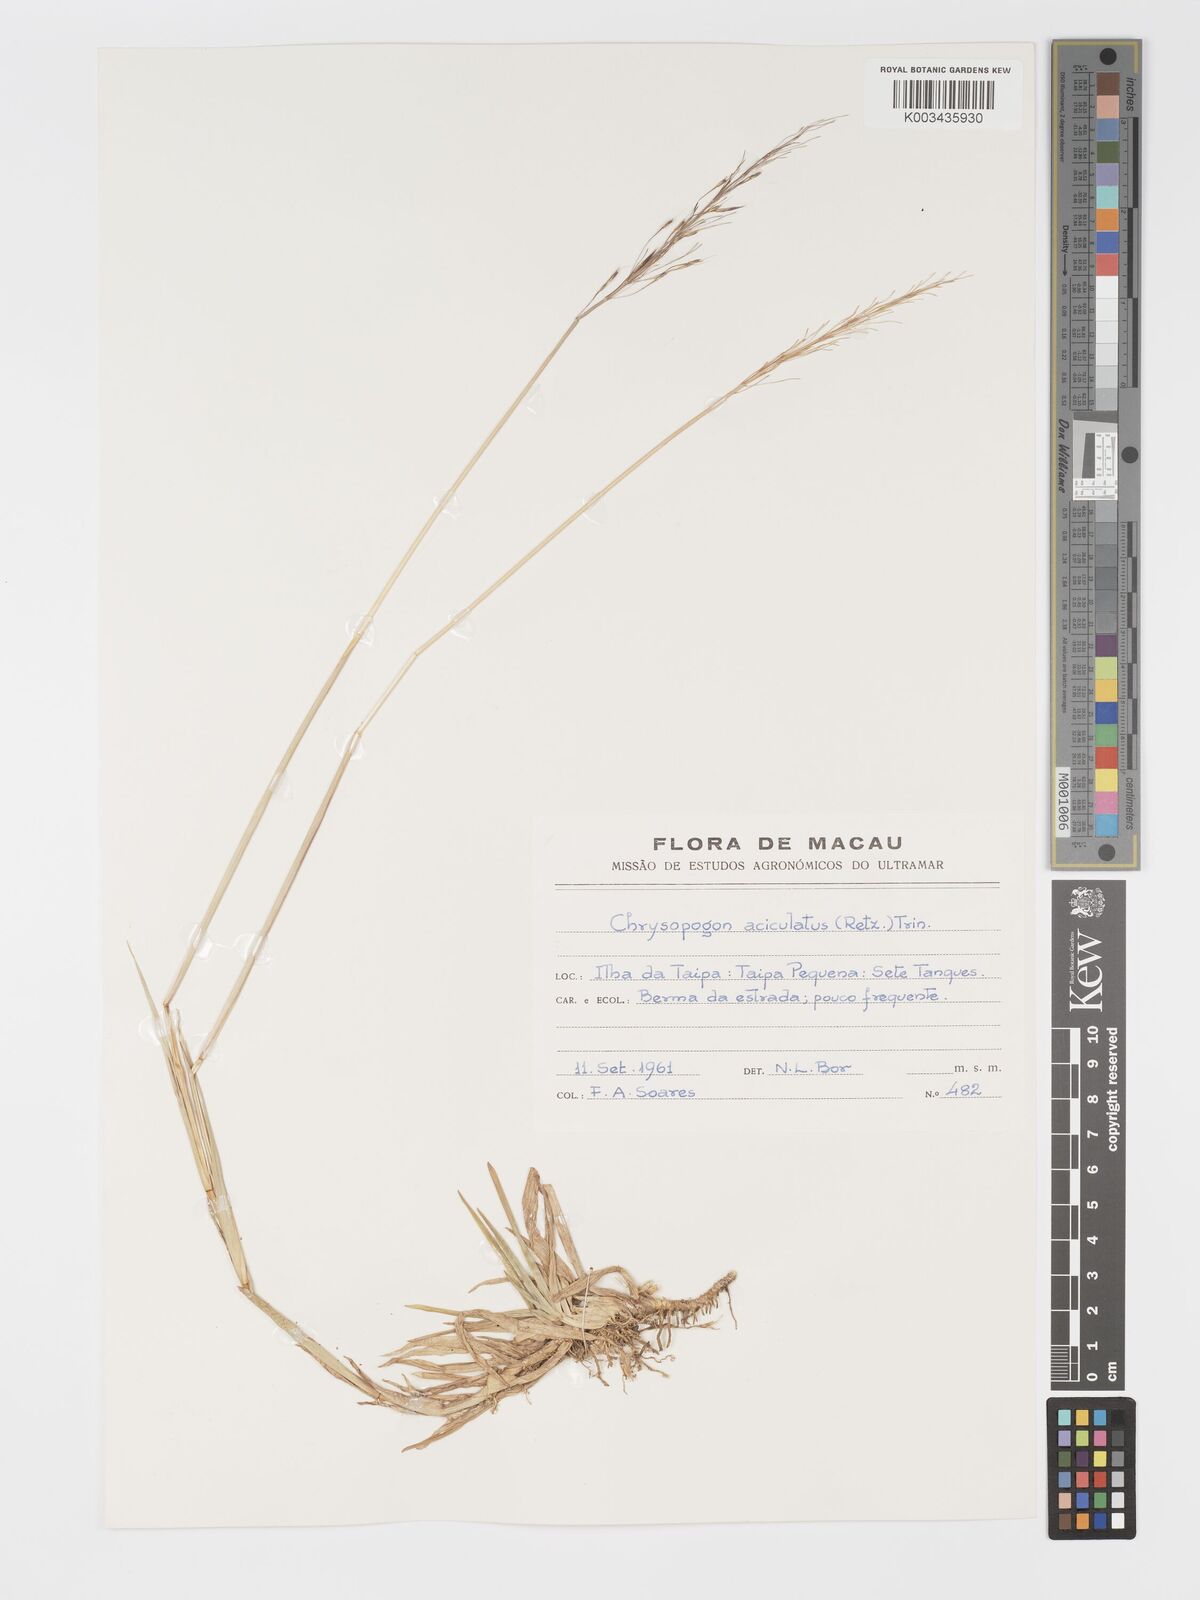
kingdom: Plantae
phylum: Tracheophyta
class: Liliopsida
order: Poales
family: Poaceae
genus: Chrysopogon
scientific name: Chrysopogon aciculatus
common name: Pilipiliula
